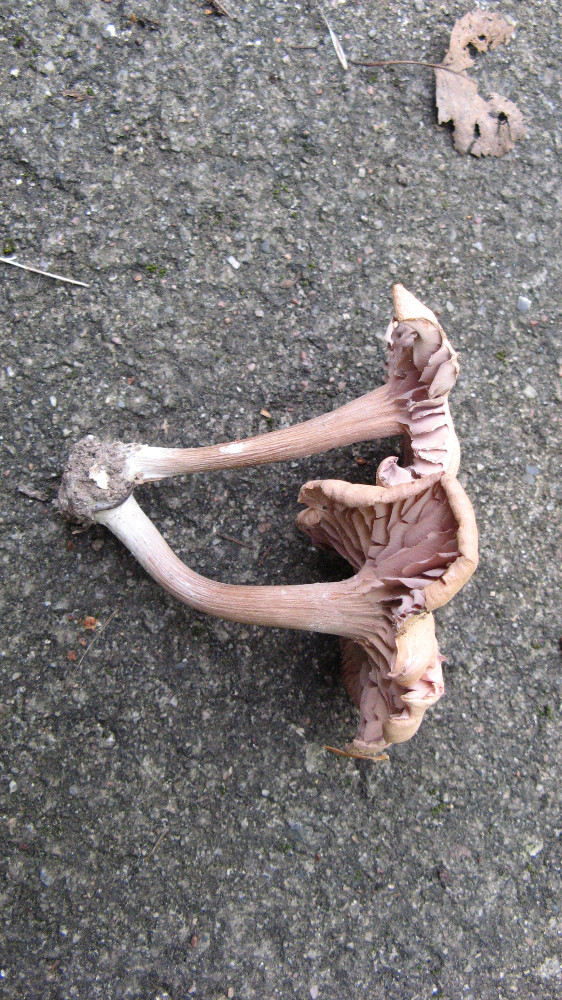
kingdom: Fungi
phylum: Basidiomycota
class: Agaricomycetes
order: Agaricales
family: Hydnangiaceae
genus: Laccaria
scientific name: Laccaria laccata
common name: rød ametysthat
